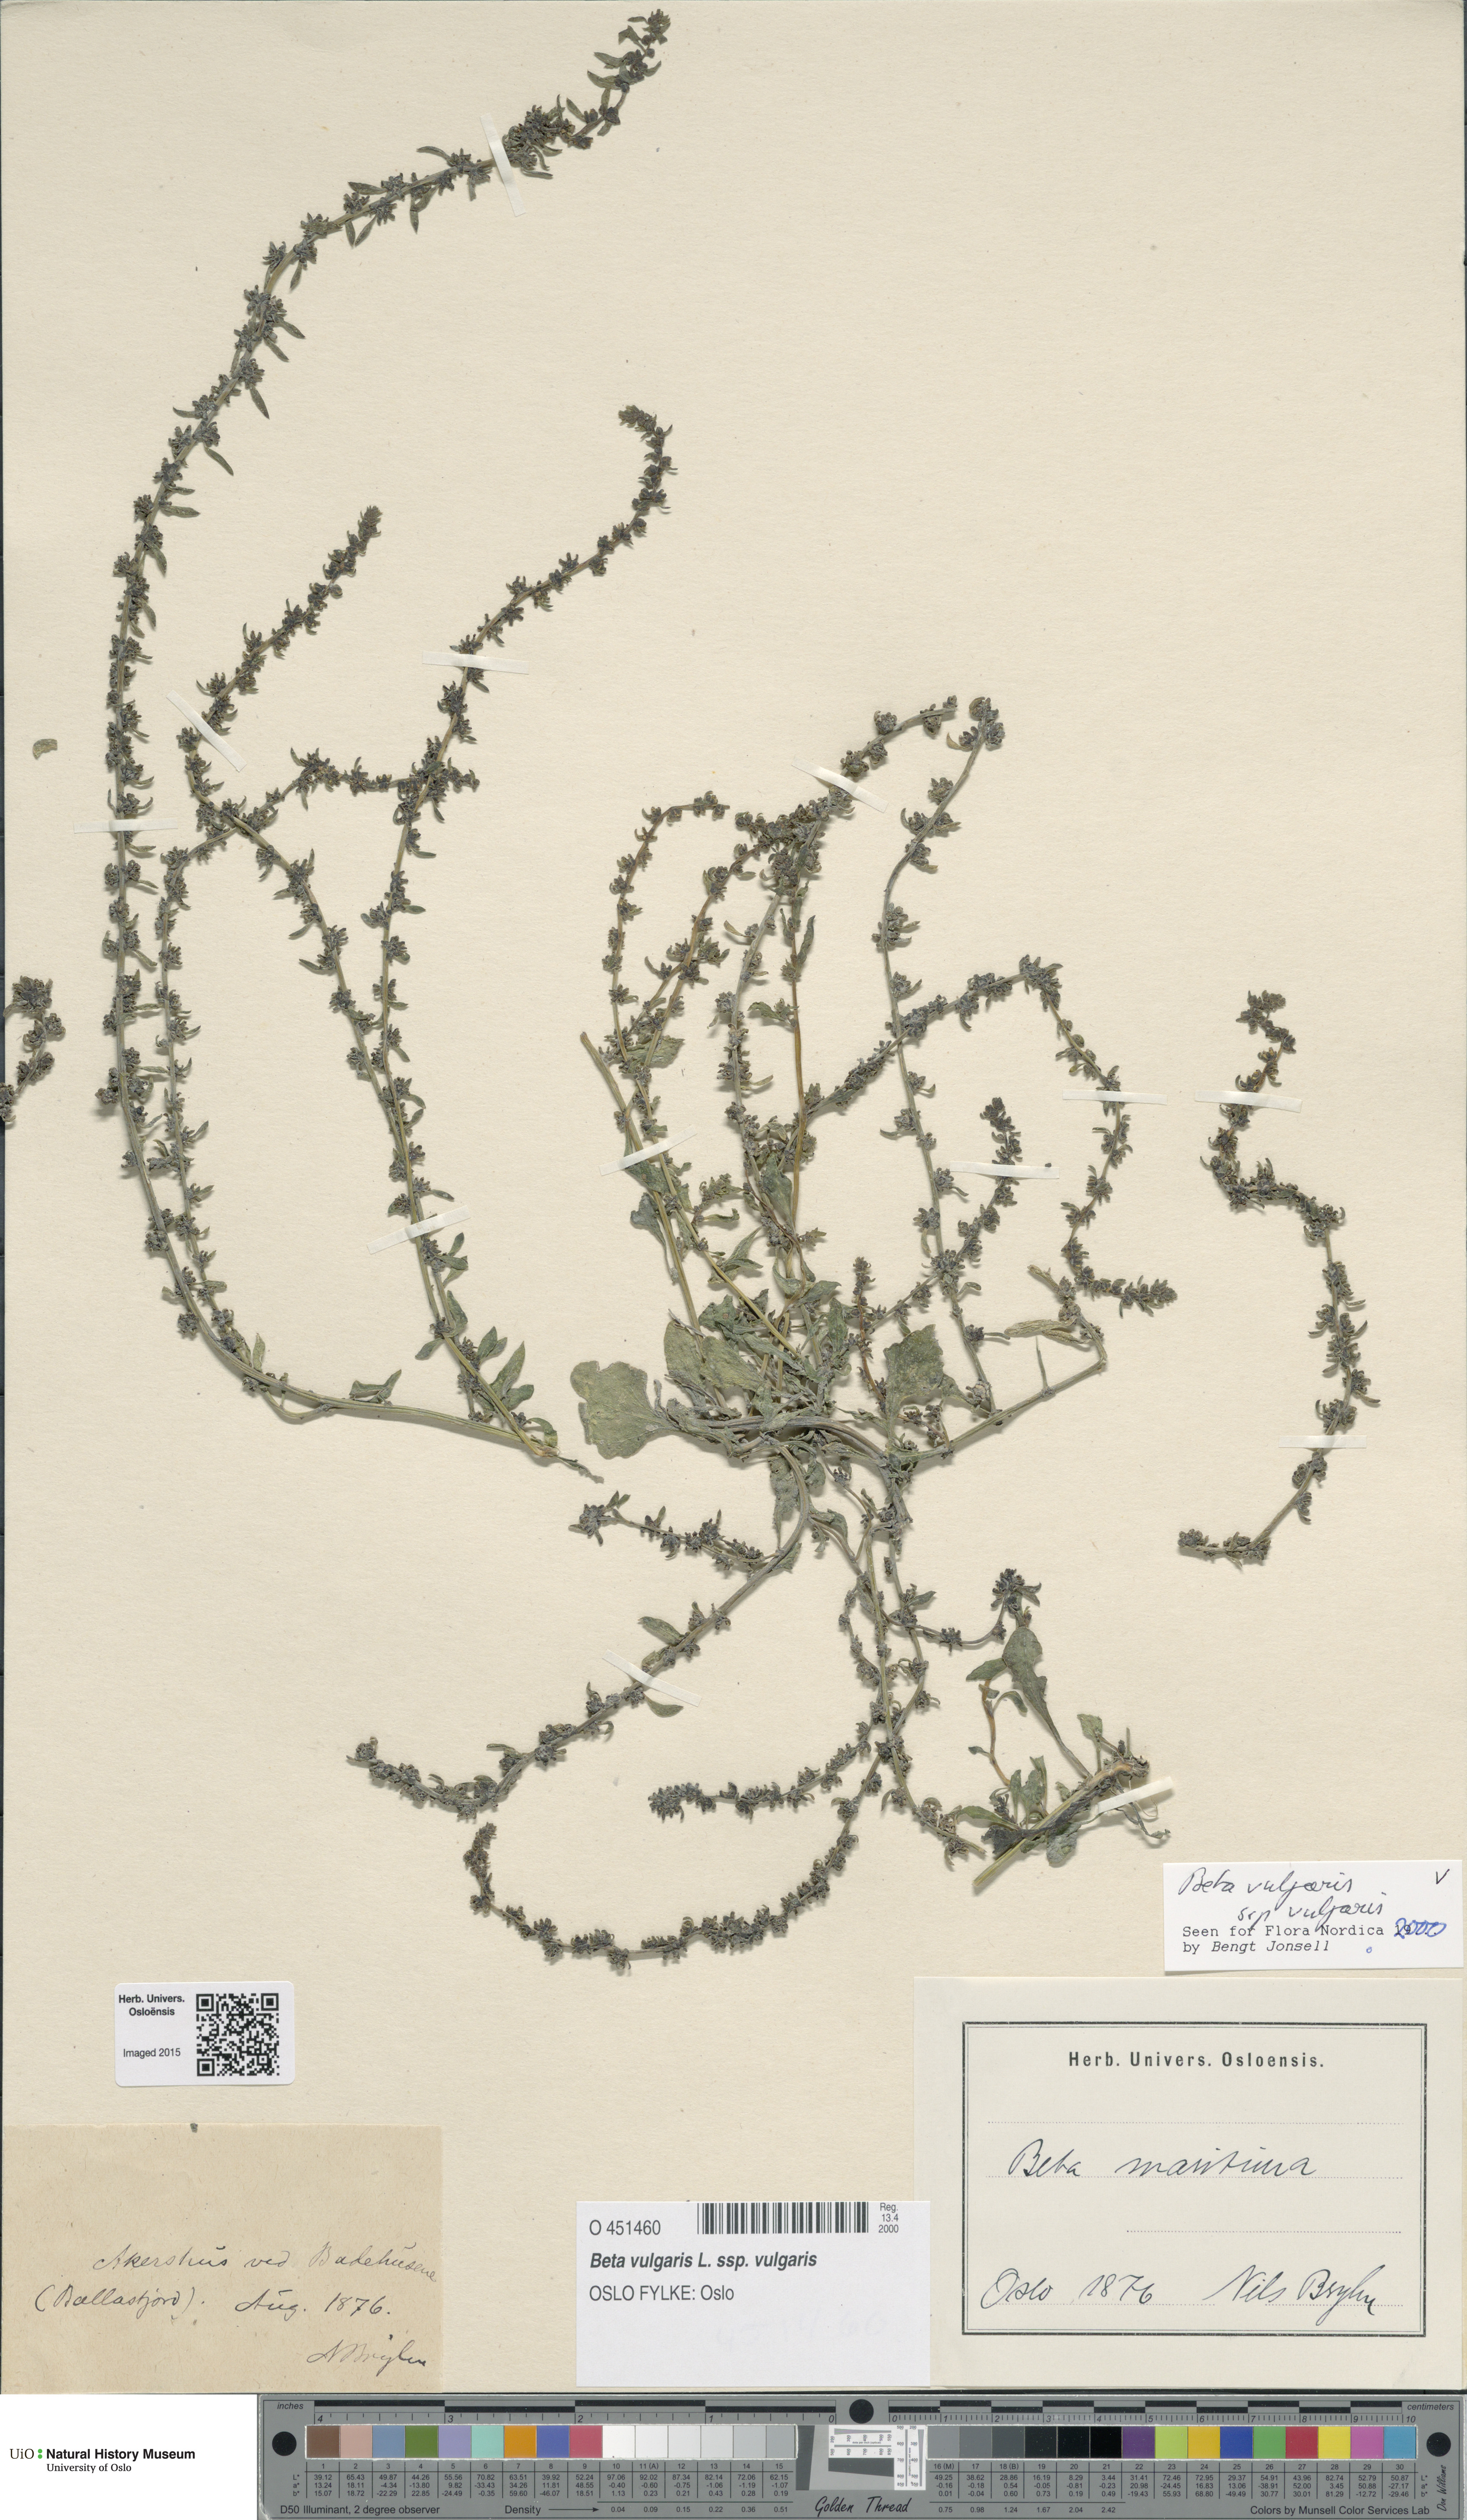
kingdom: Plantae
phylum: Tracheophyta
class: Magnoliopsida
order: Caryophyllales
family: Amaranthaceae
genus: Beta
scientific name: Beta vulgaris
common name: Beet
